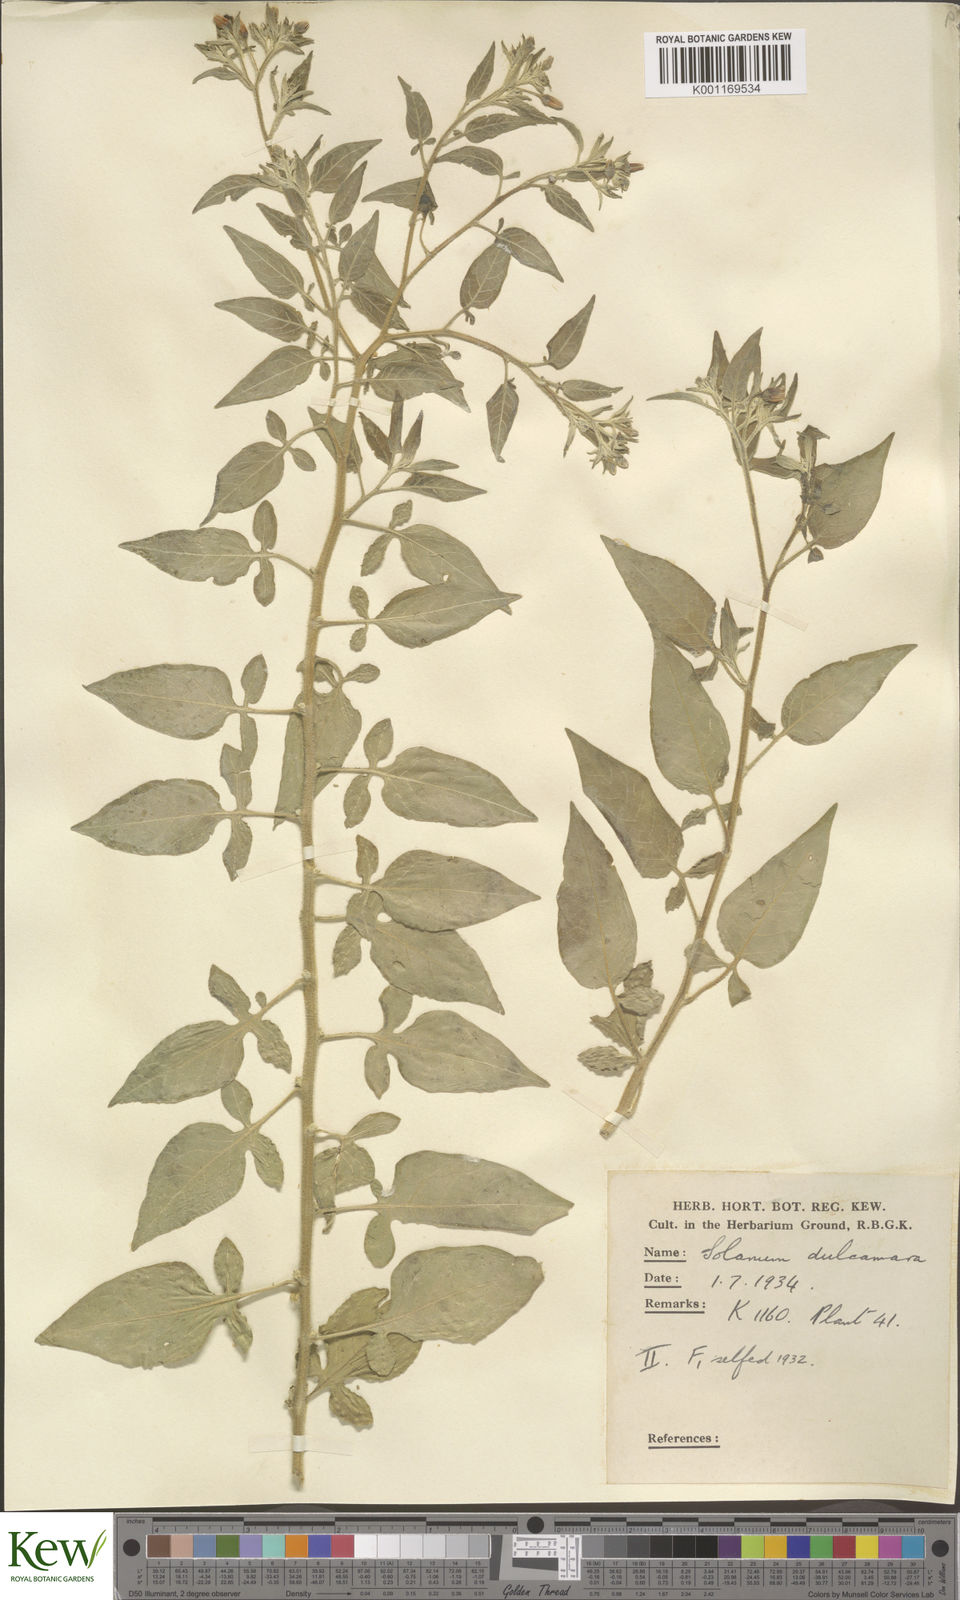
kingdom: Plantae
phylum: Tracheophyta
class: Magnoliopsida
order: Solanales
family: Solanaceae
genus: Solanum
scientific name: Solanum dulcamara
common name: Climbing nightshade
